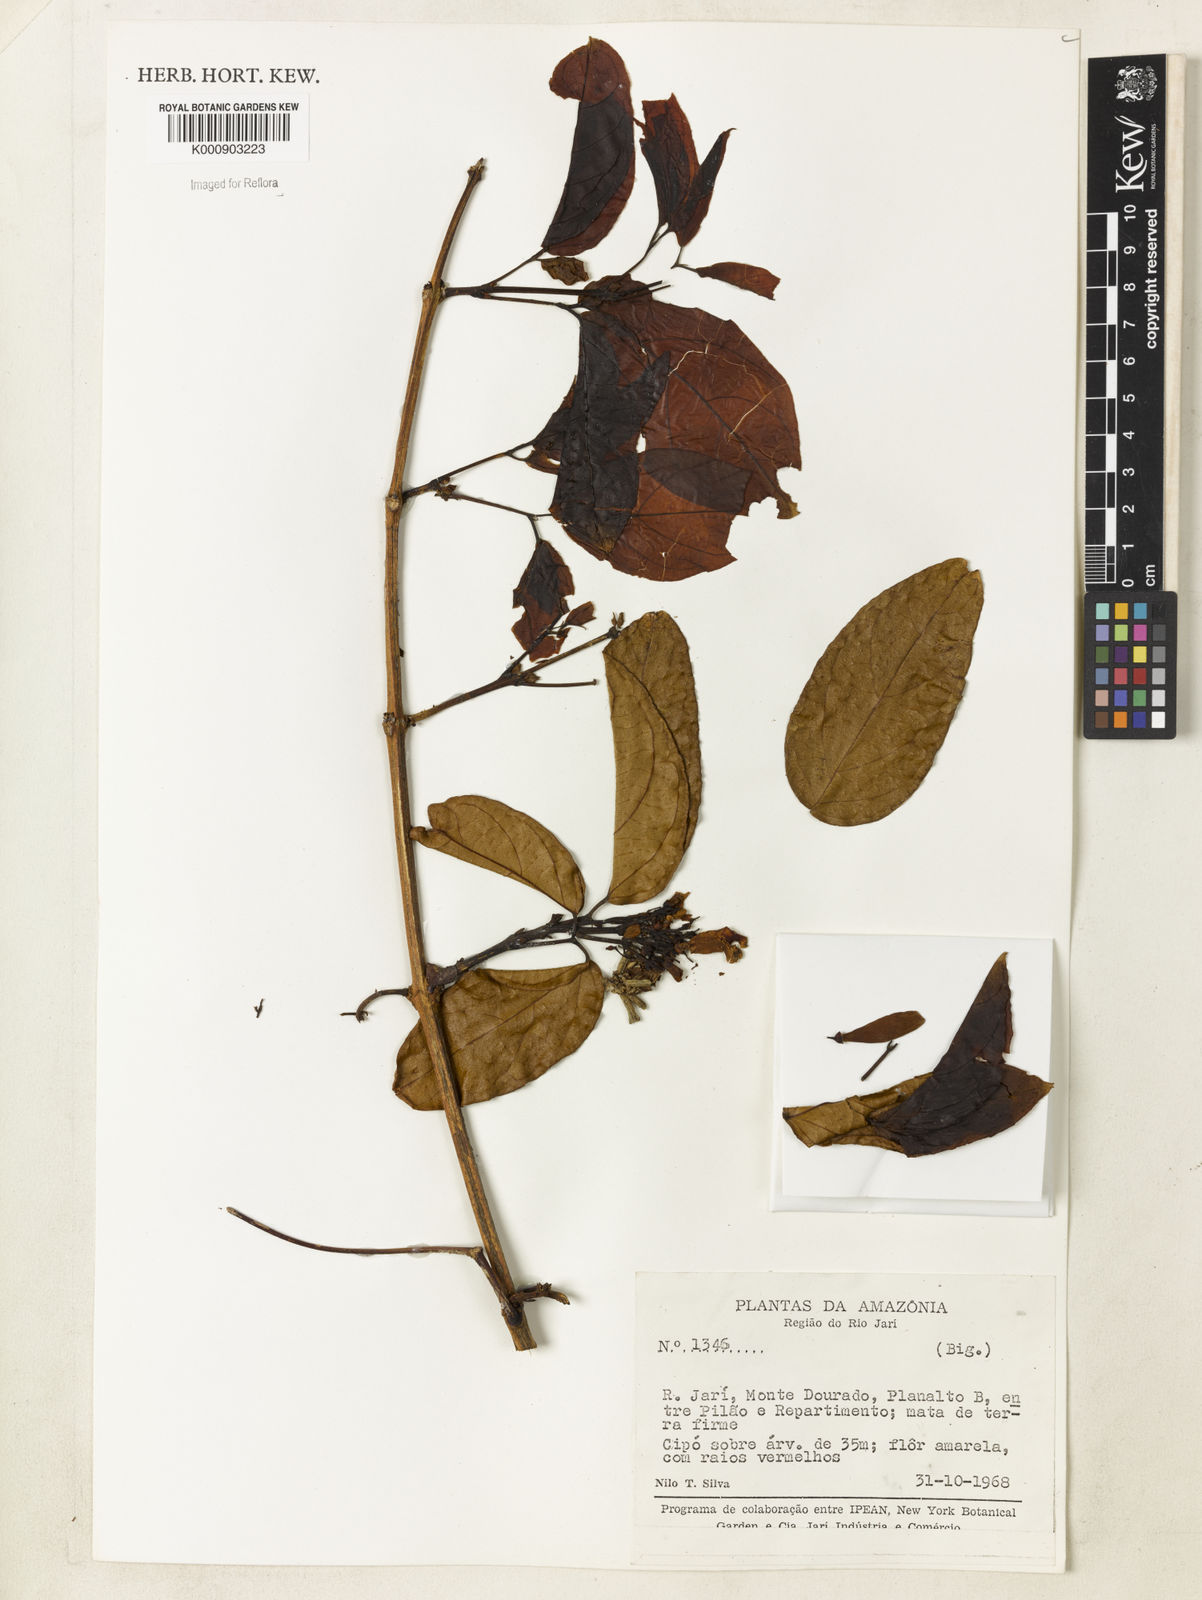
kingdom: Plantae
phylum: Tracheophyta
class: Magnoliopsida
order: Lamiales
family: Bignoniaceae
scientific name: Bignoniaceae
